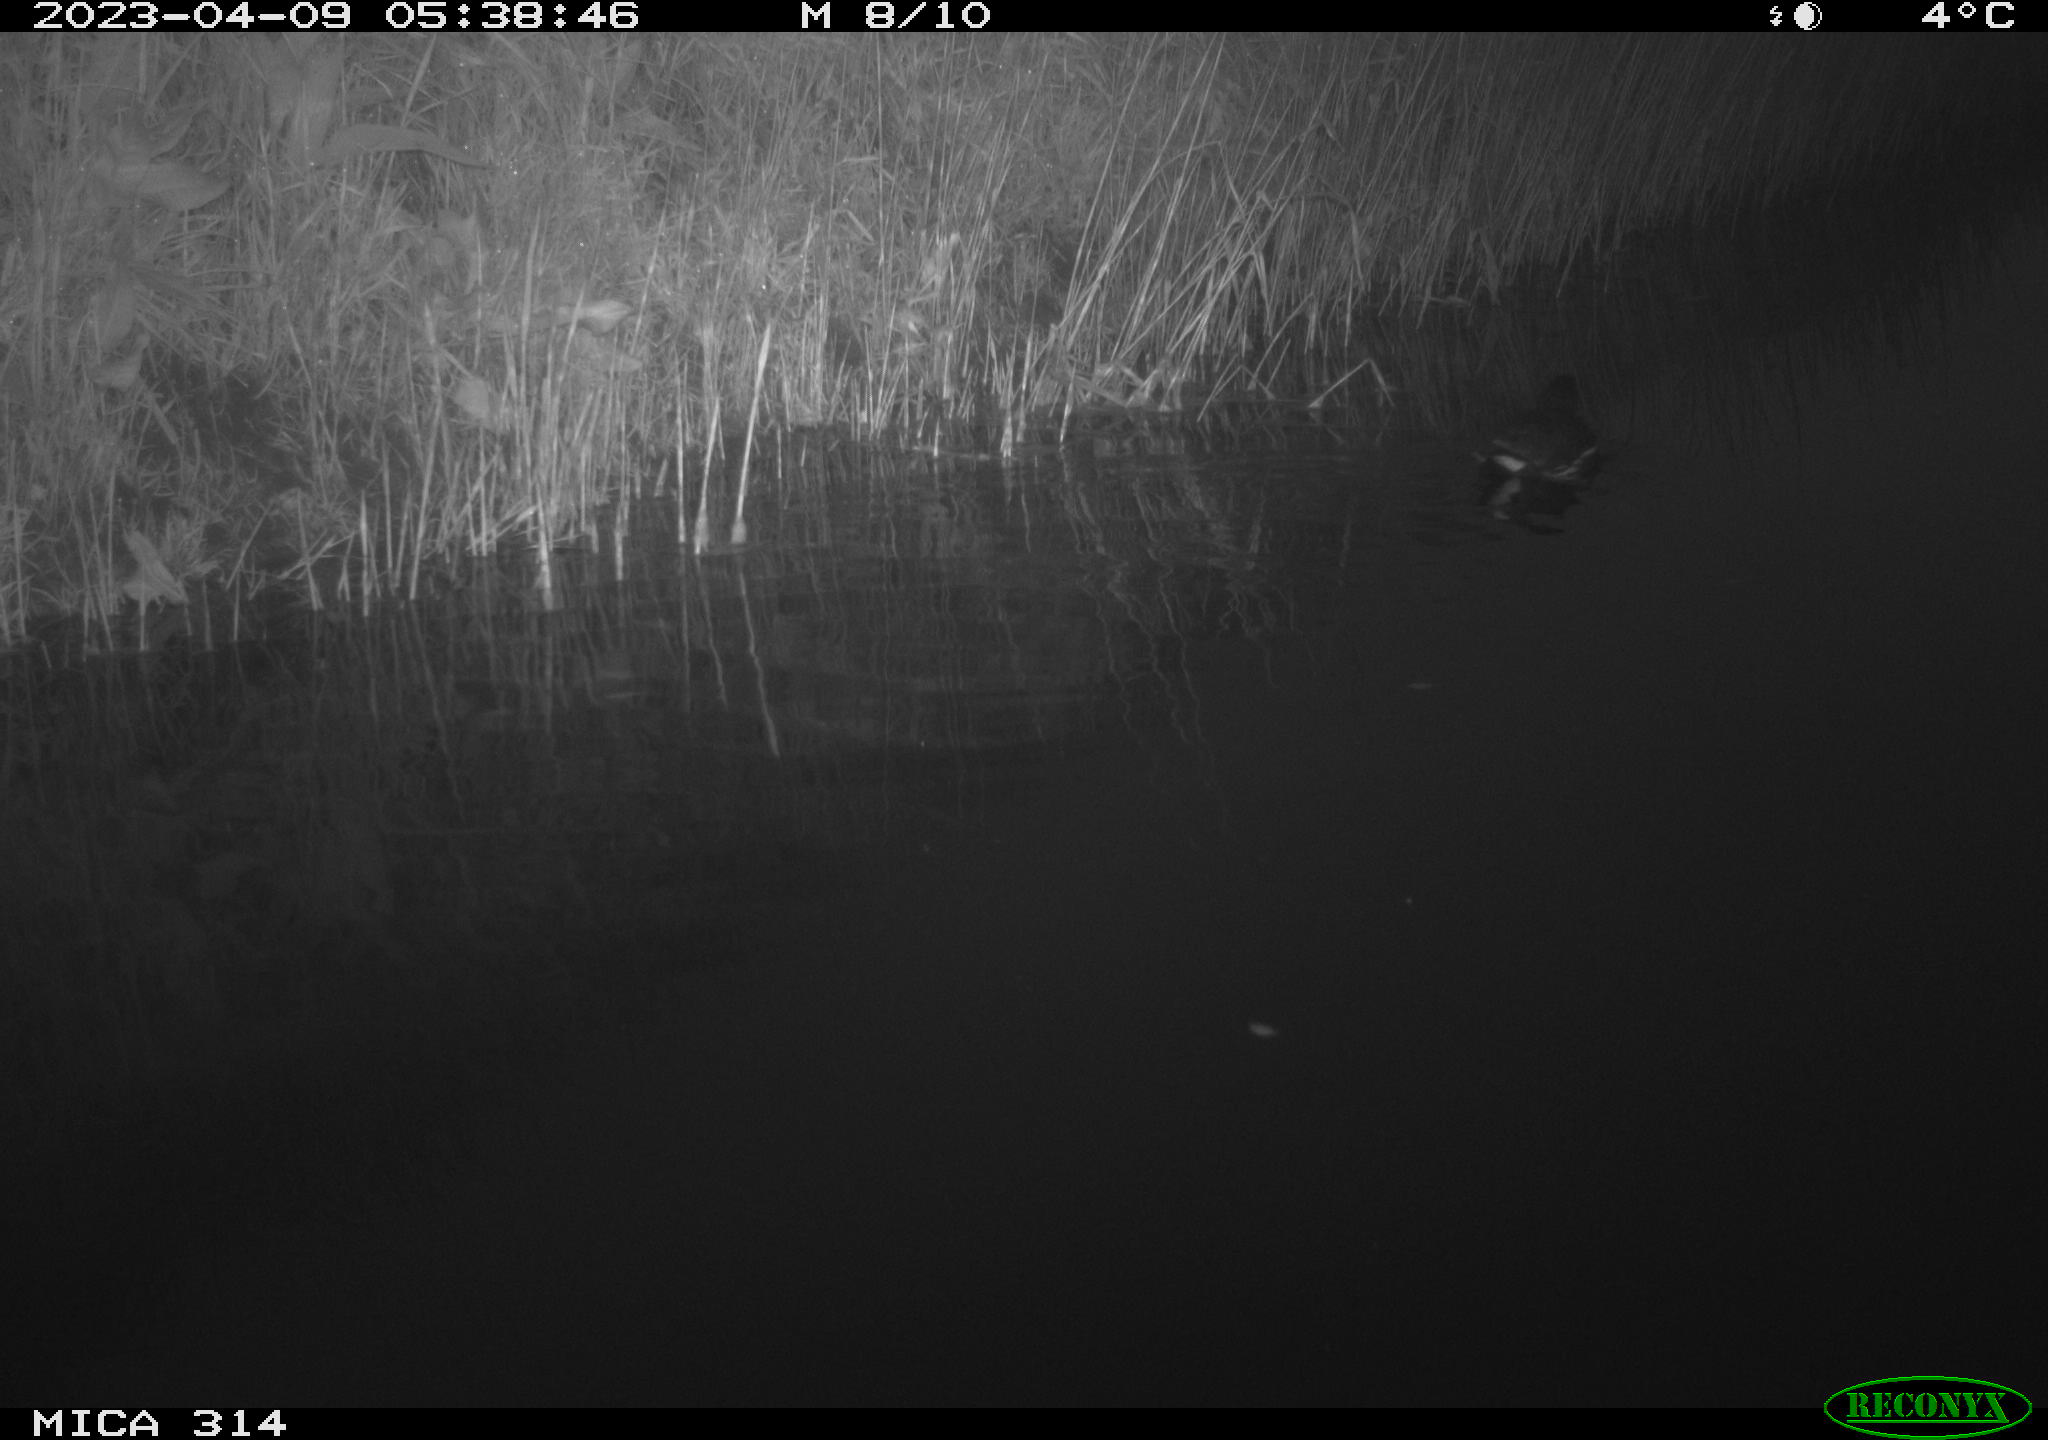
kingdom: Animalia
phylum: Chordata
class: Aves
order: Gruiformes
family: Rallidae
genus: Gallinula
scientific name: Gallinula chloropus
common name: Common moorhen
